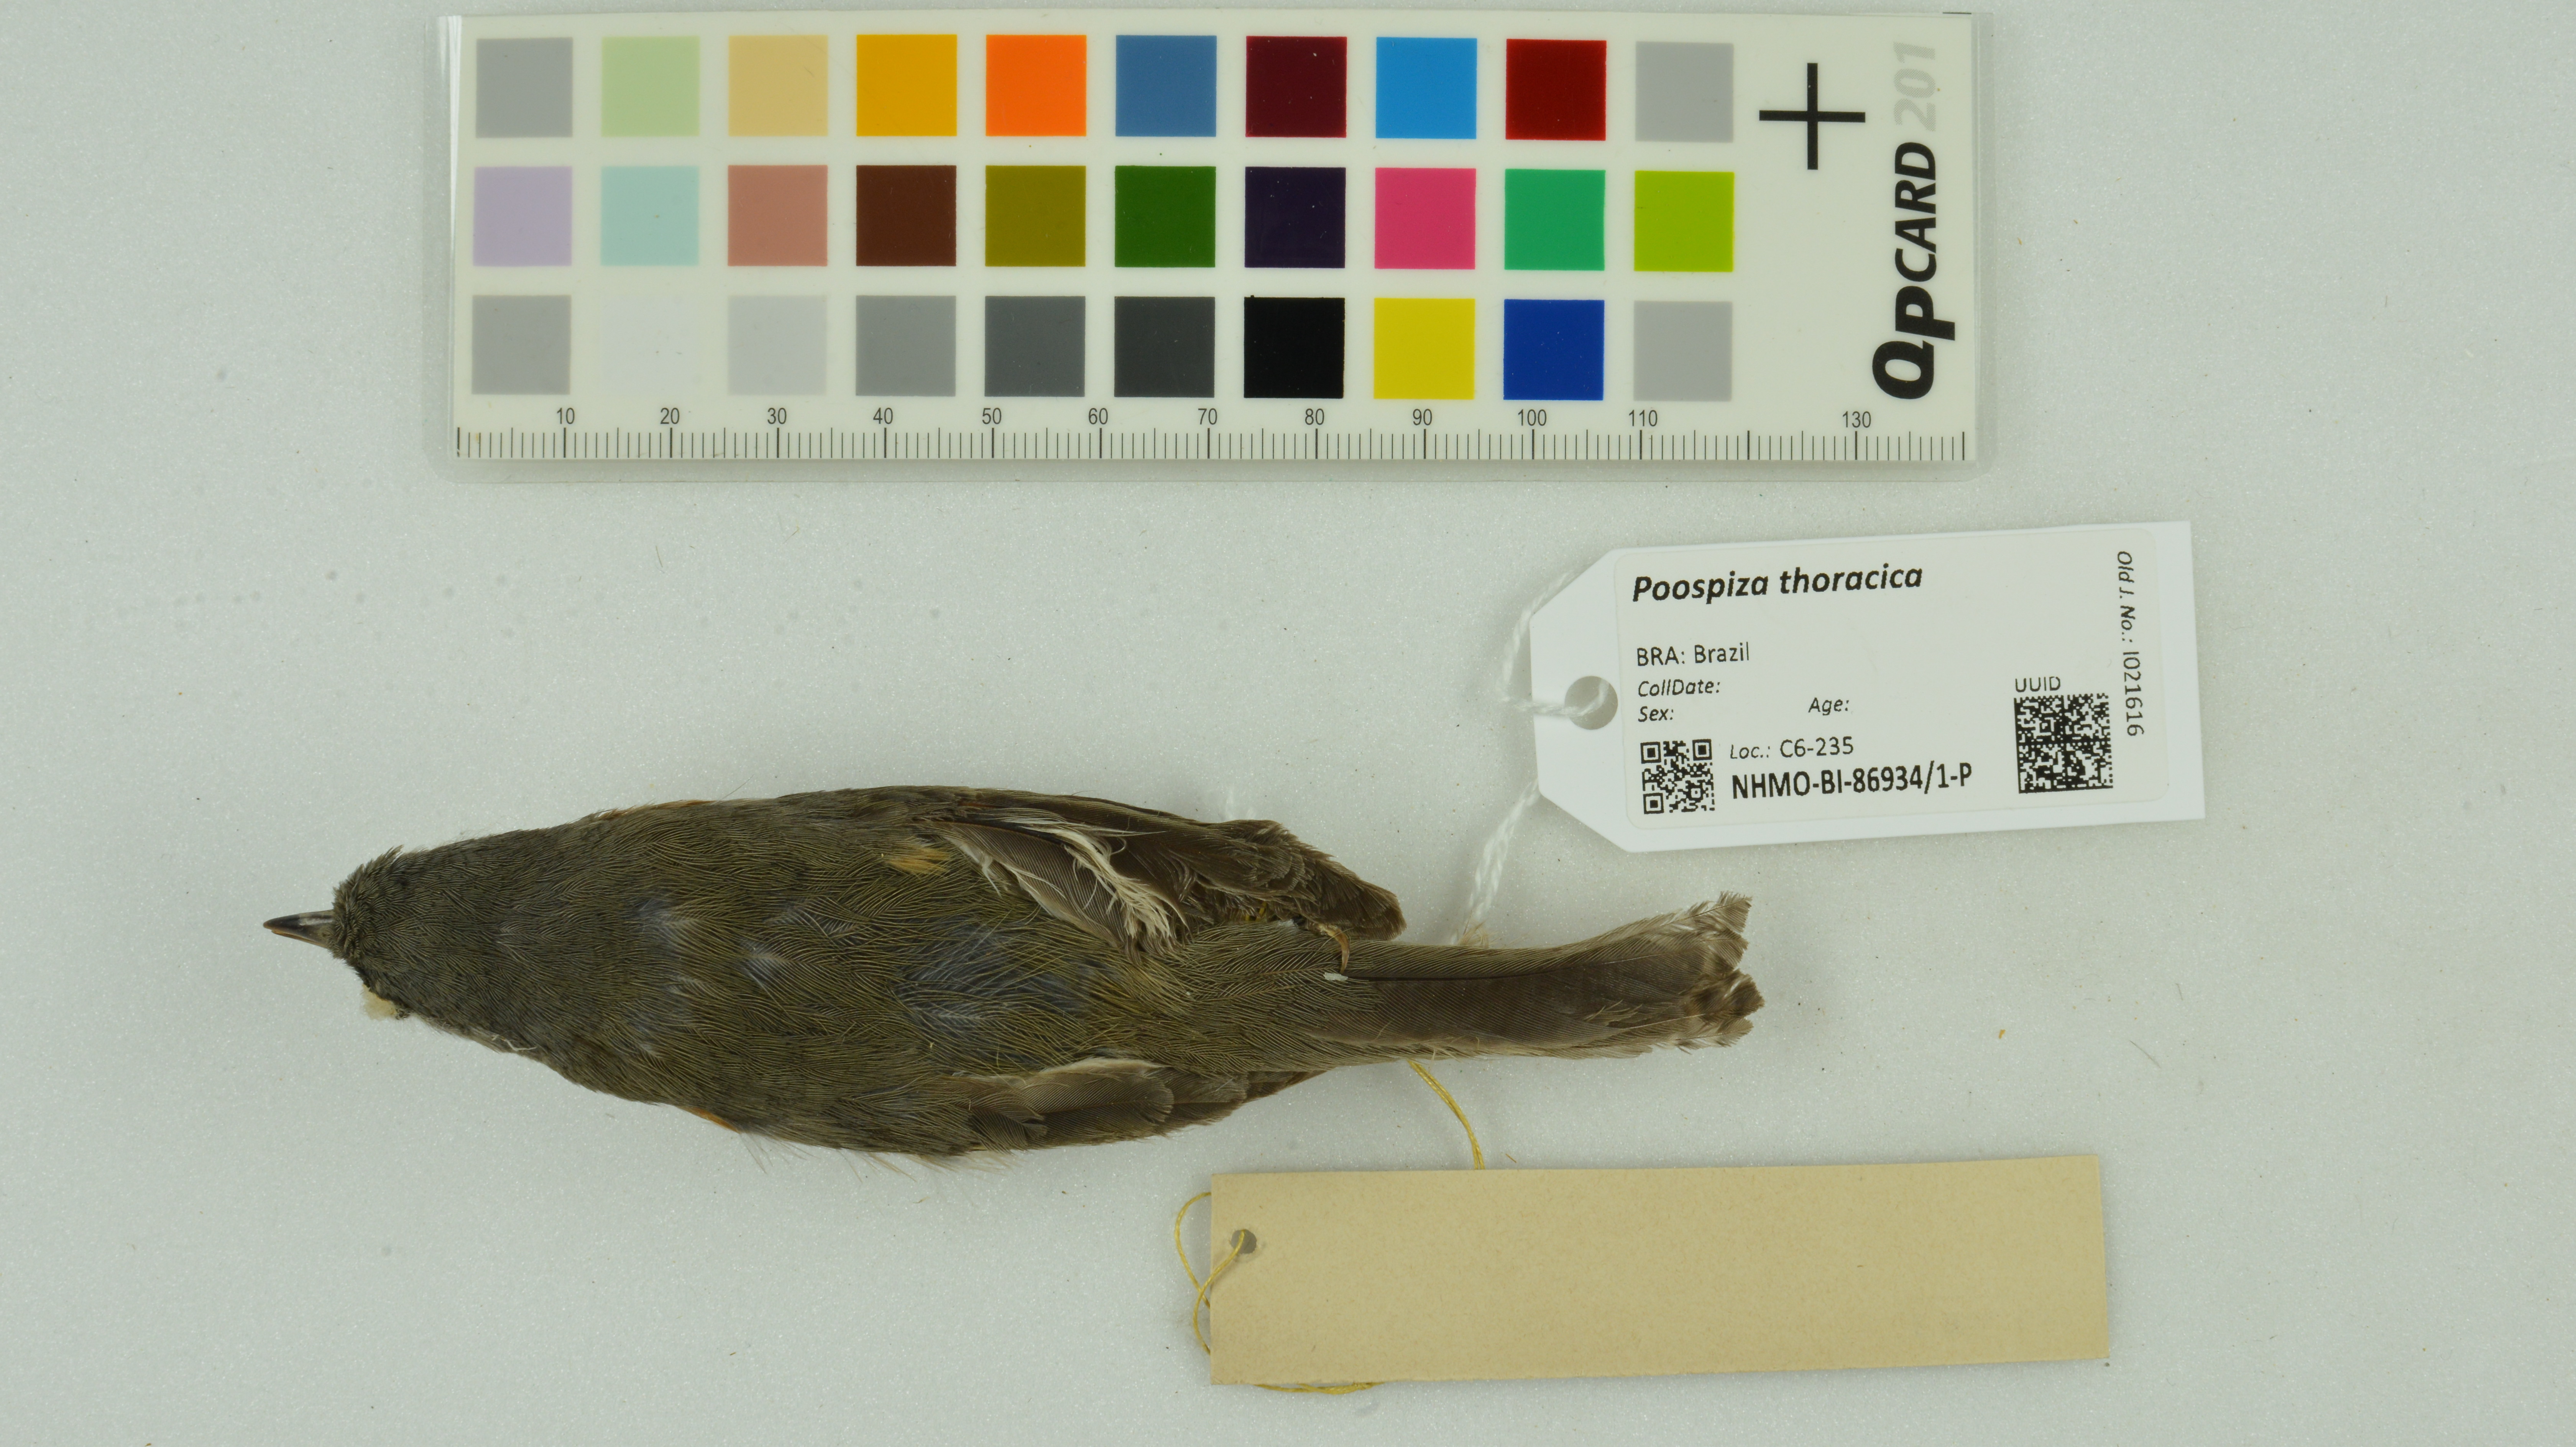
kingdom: Animalia
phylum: Chordata
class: Aves
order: Passeriformes
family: Thraupidae
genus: Castanozoster
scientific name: Castanozoster thoracicus
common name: Bay-chested warbling-finch
